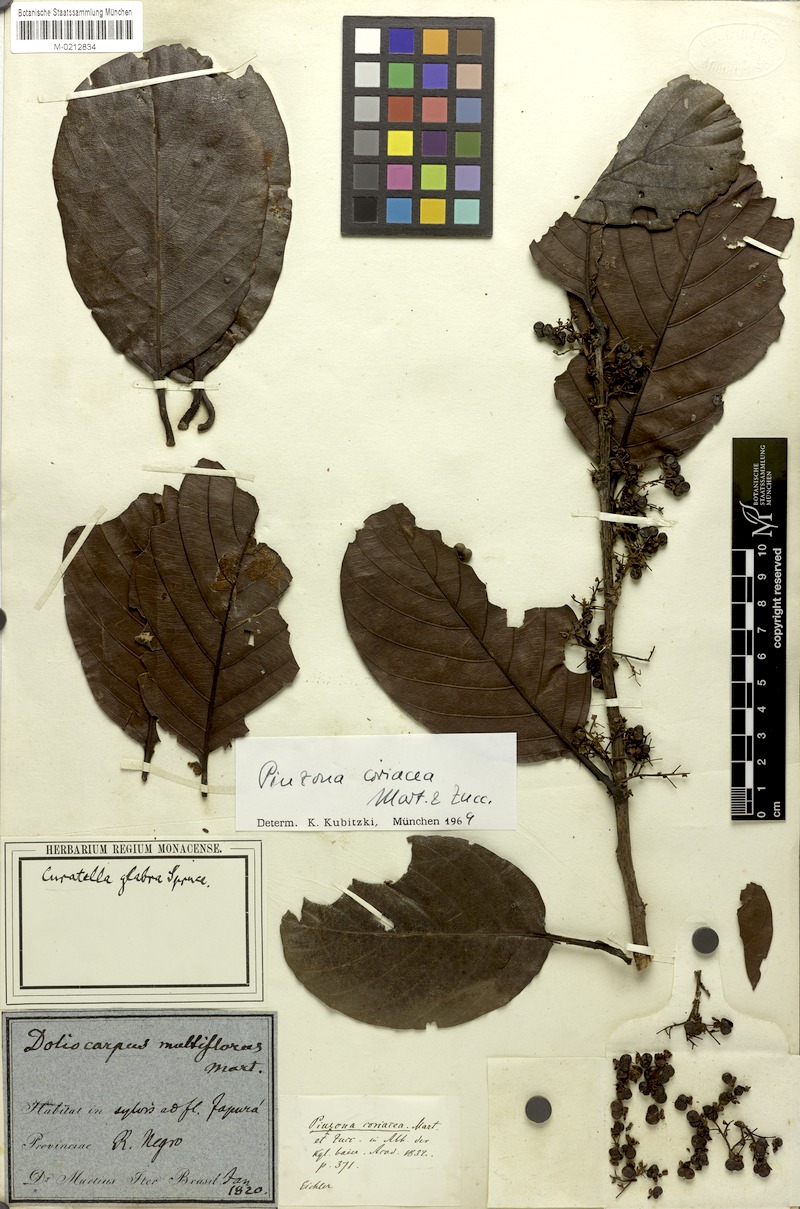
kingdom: Plantae
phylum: Tracheophyta
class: Magnoliopsida
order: Dilleniales
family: Dilleniaceae
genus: Pinzona
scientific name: Pinzona coriacea
